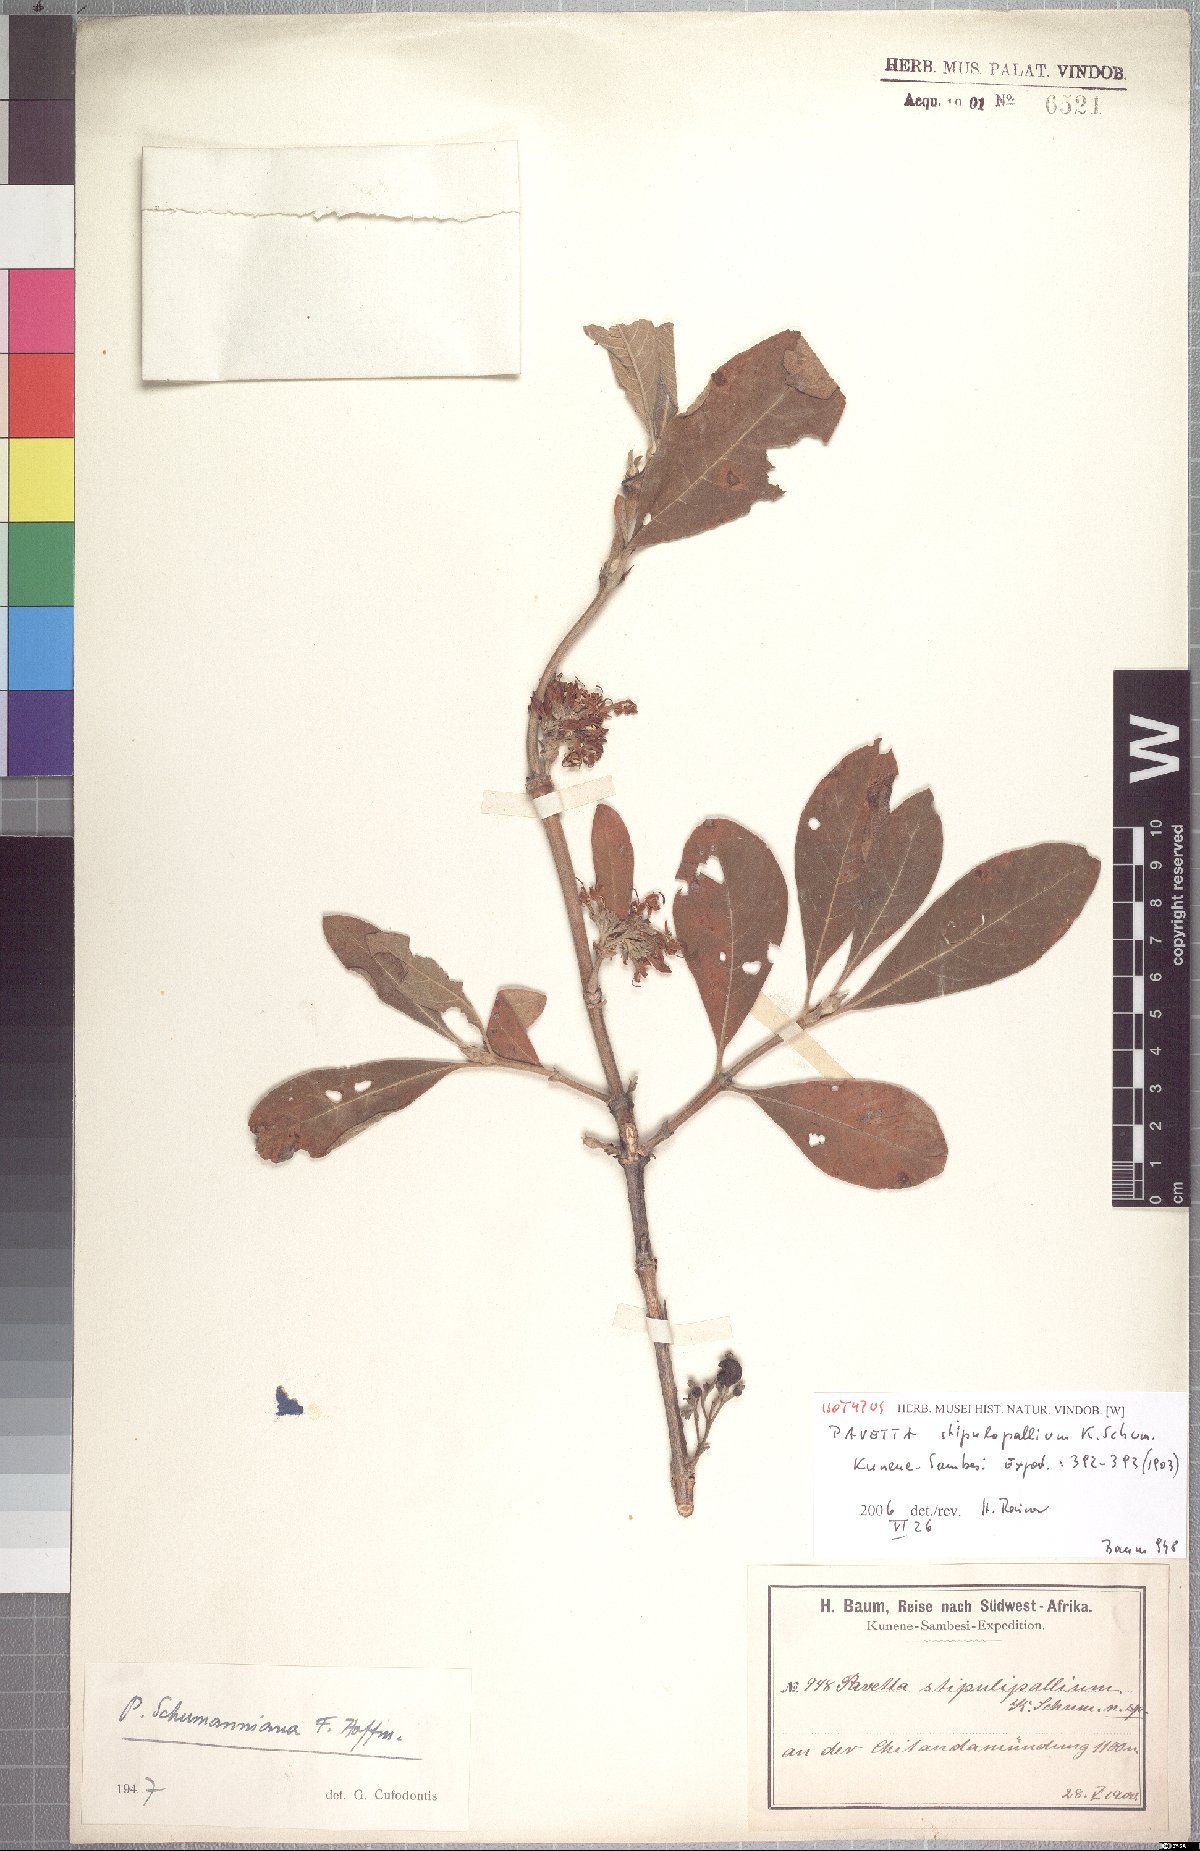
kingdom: Plantae
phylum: Tracheophyta
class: Magnoliopsida
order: Gentianales
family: Rubiaceae
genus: Pavetta
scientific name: Pavetta stipulopallium
